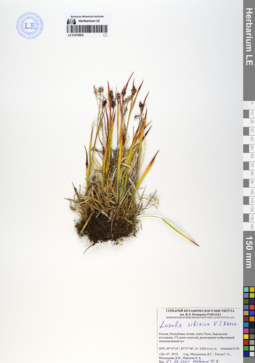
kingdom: Plantae
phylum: Tracheophyta
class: Liliopsida
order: Poales
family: Juncaceae
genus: Luzula
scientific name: Luzula multiflora
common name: Heath wood-rush
